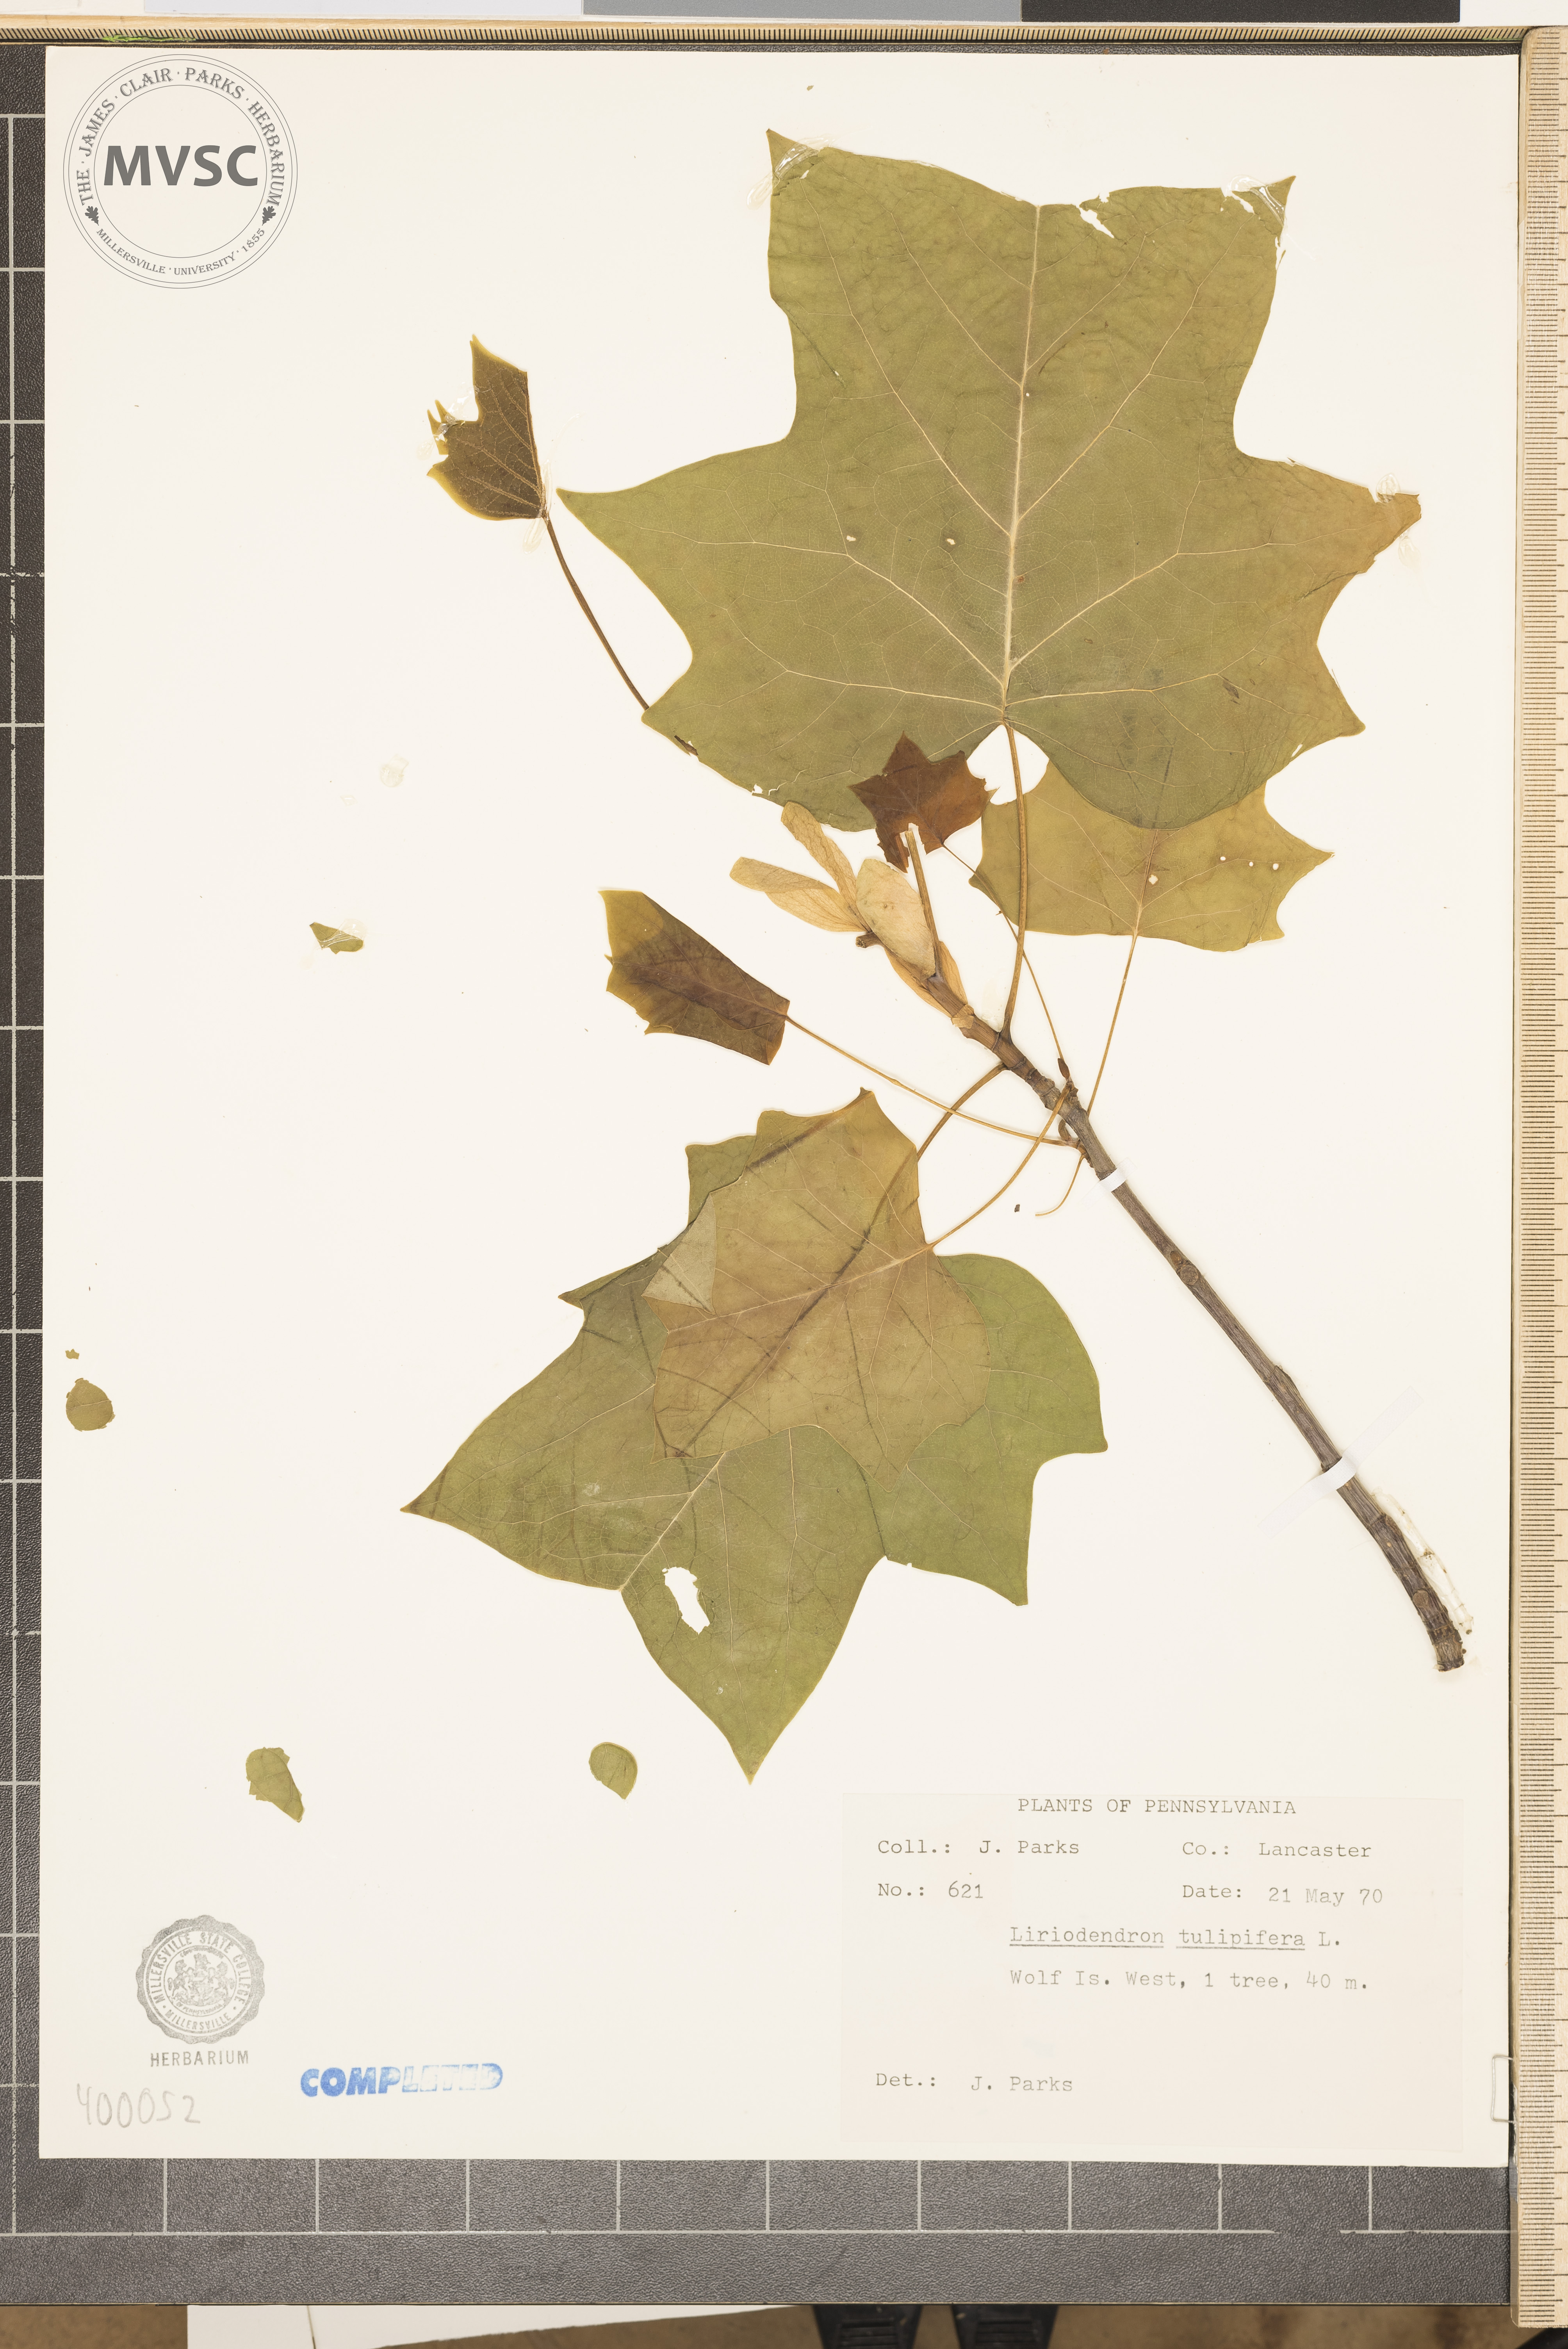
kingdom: Plantae
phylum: Tracheophyta
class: Magnoliopsida
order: Magnoliales
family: Magnoliaceae
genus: Liriodendron
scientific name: Liriodendron tulipifera
